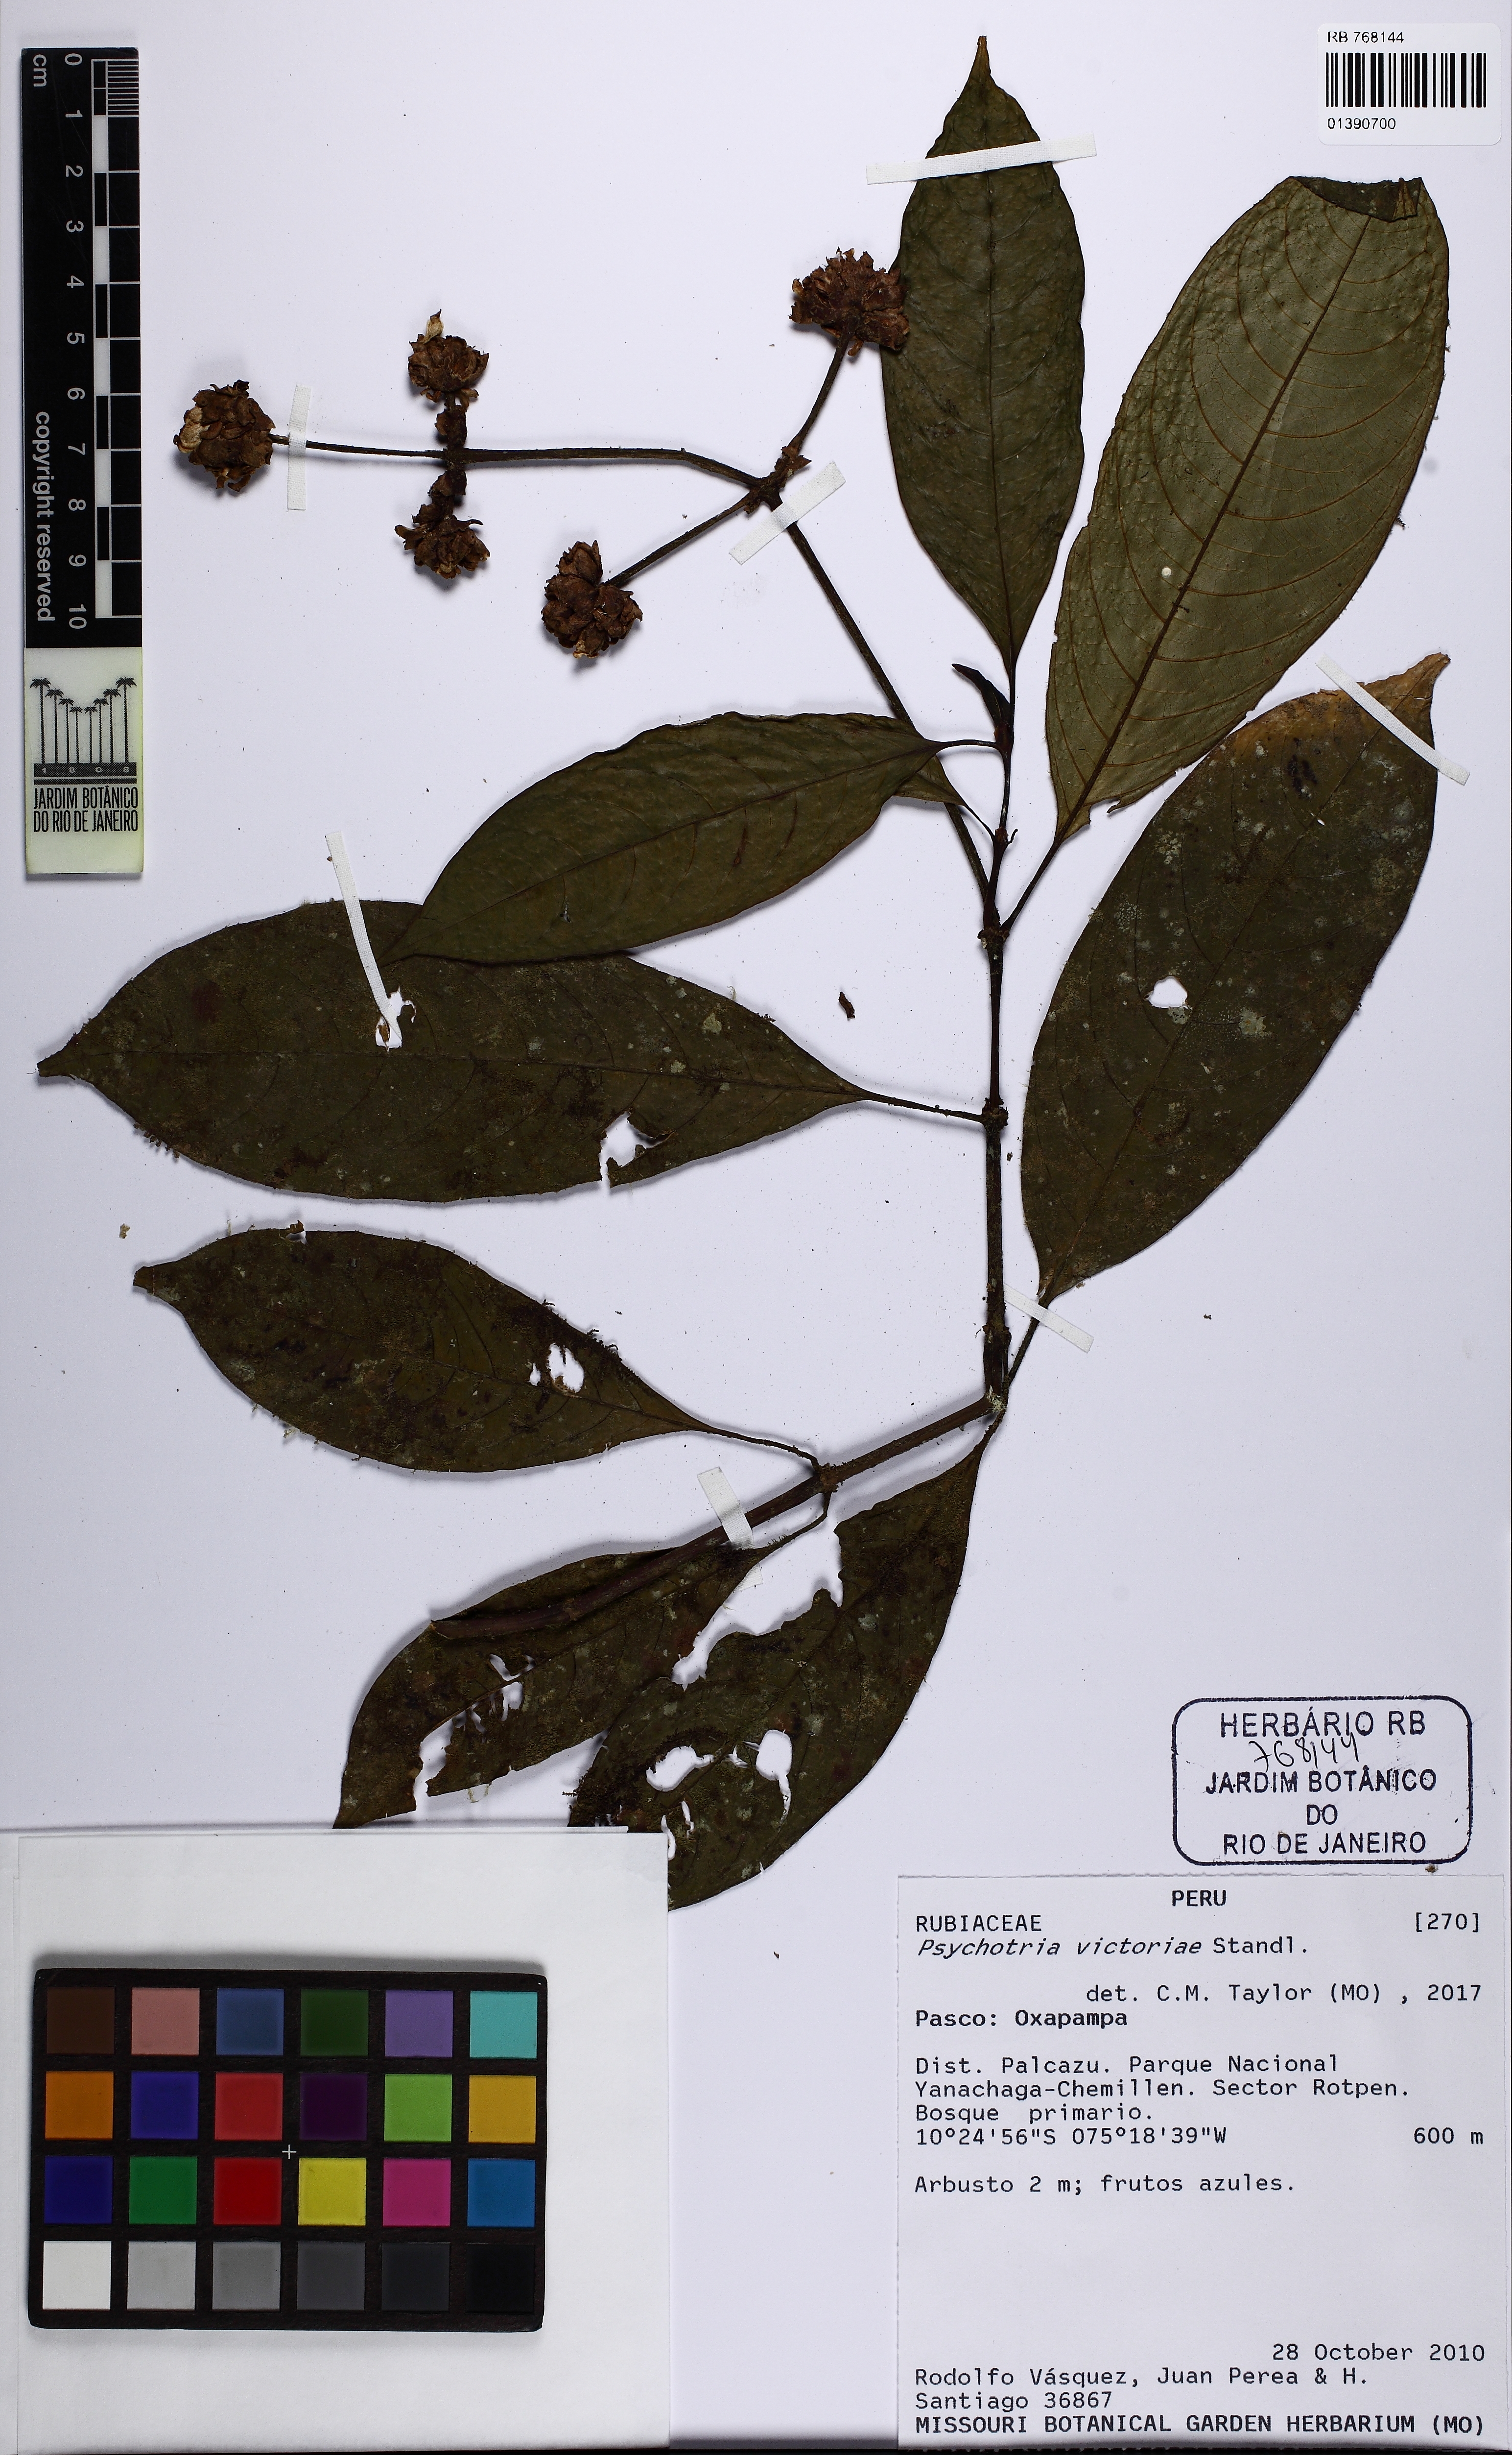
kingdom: Plantae
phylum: Tracheophyta
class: Magnoliopsida
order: Gentianales
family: Rubiaceae
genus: Palicourea
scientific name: Palicourea caerulea
